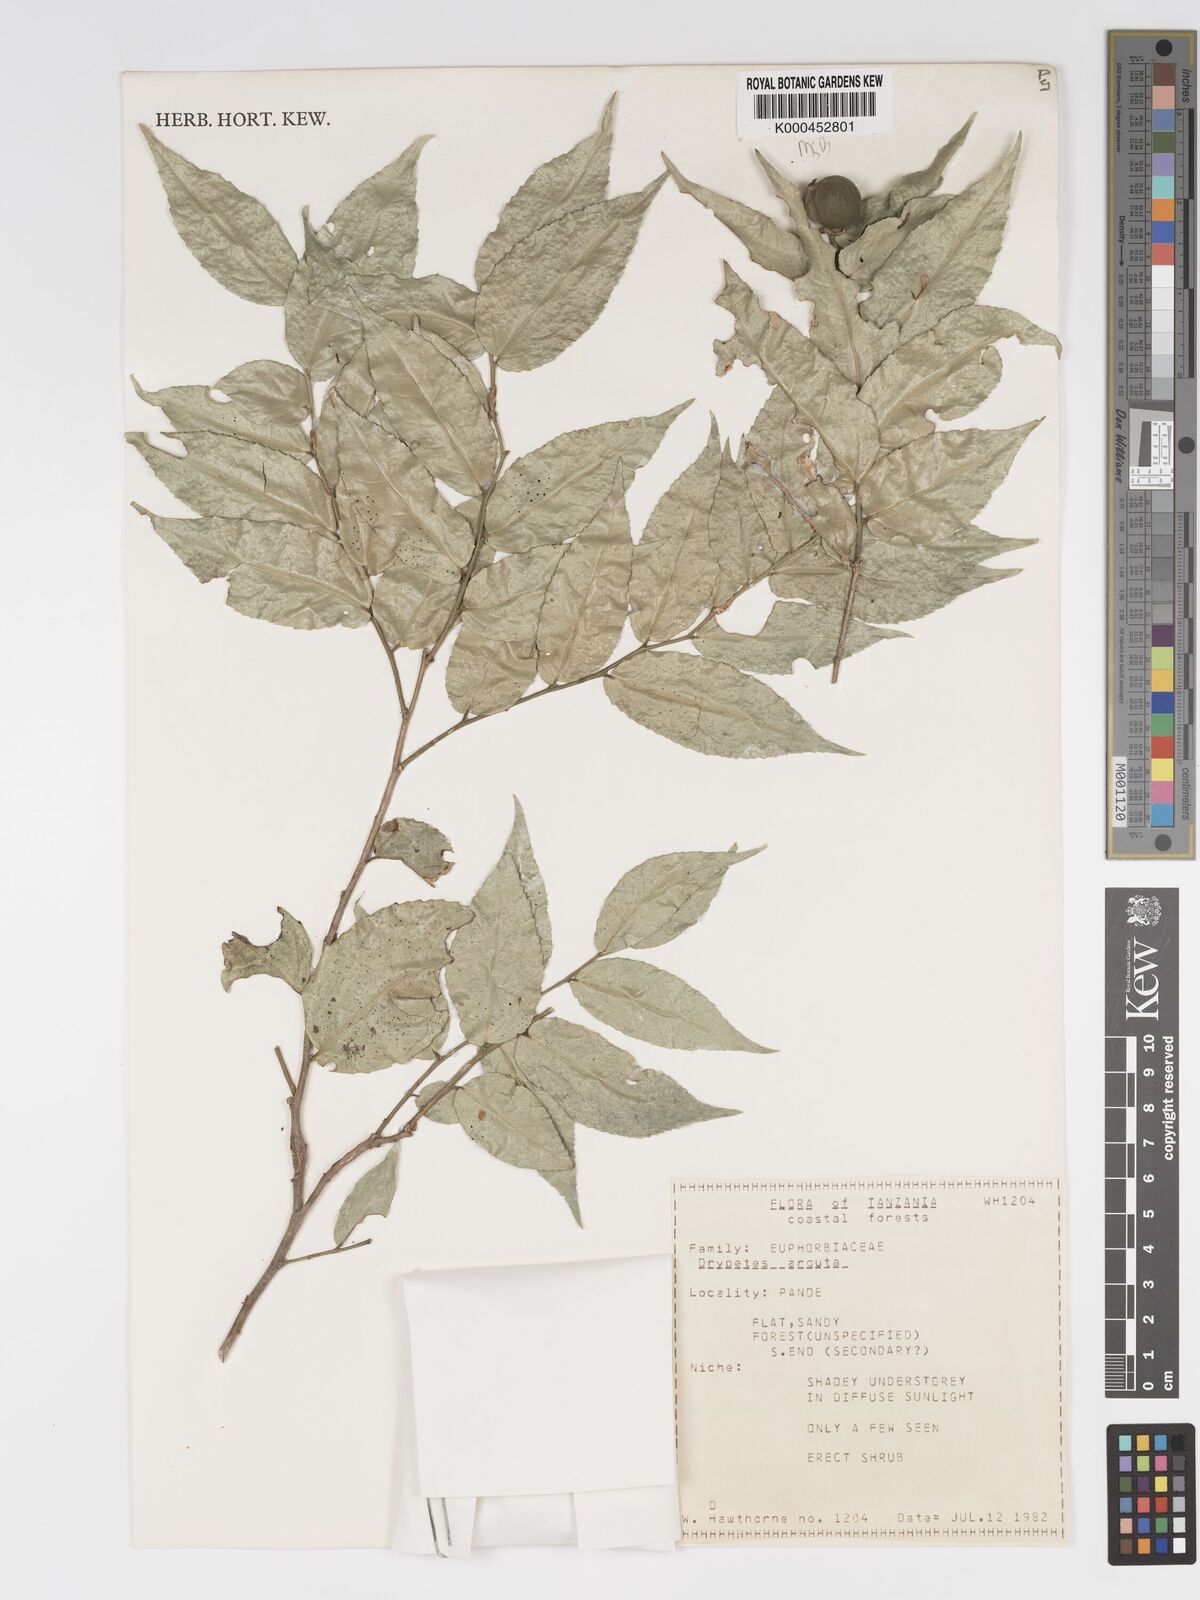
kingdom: Plantae
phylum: Tracheophyta
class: Magnoliopsida
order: Malpighiales
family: Putranjivaceae
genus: Drypetes
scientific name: Drypetes
